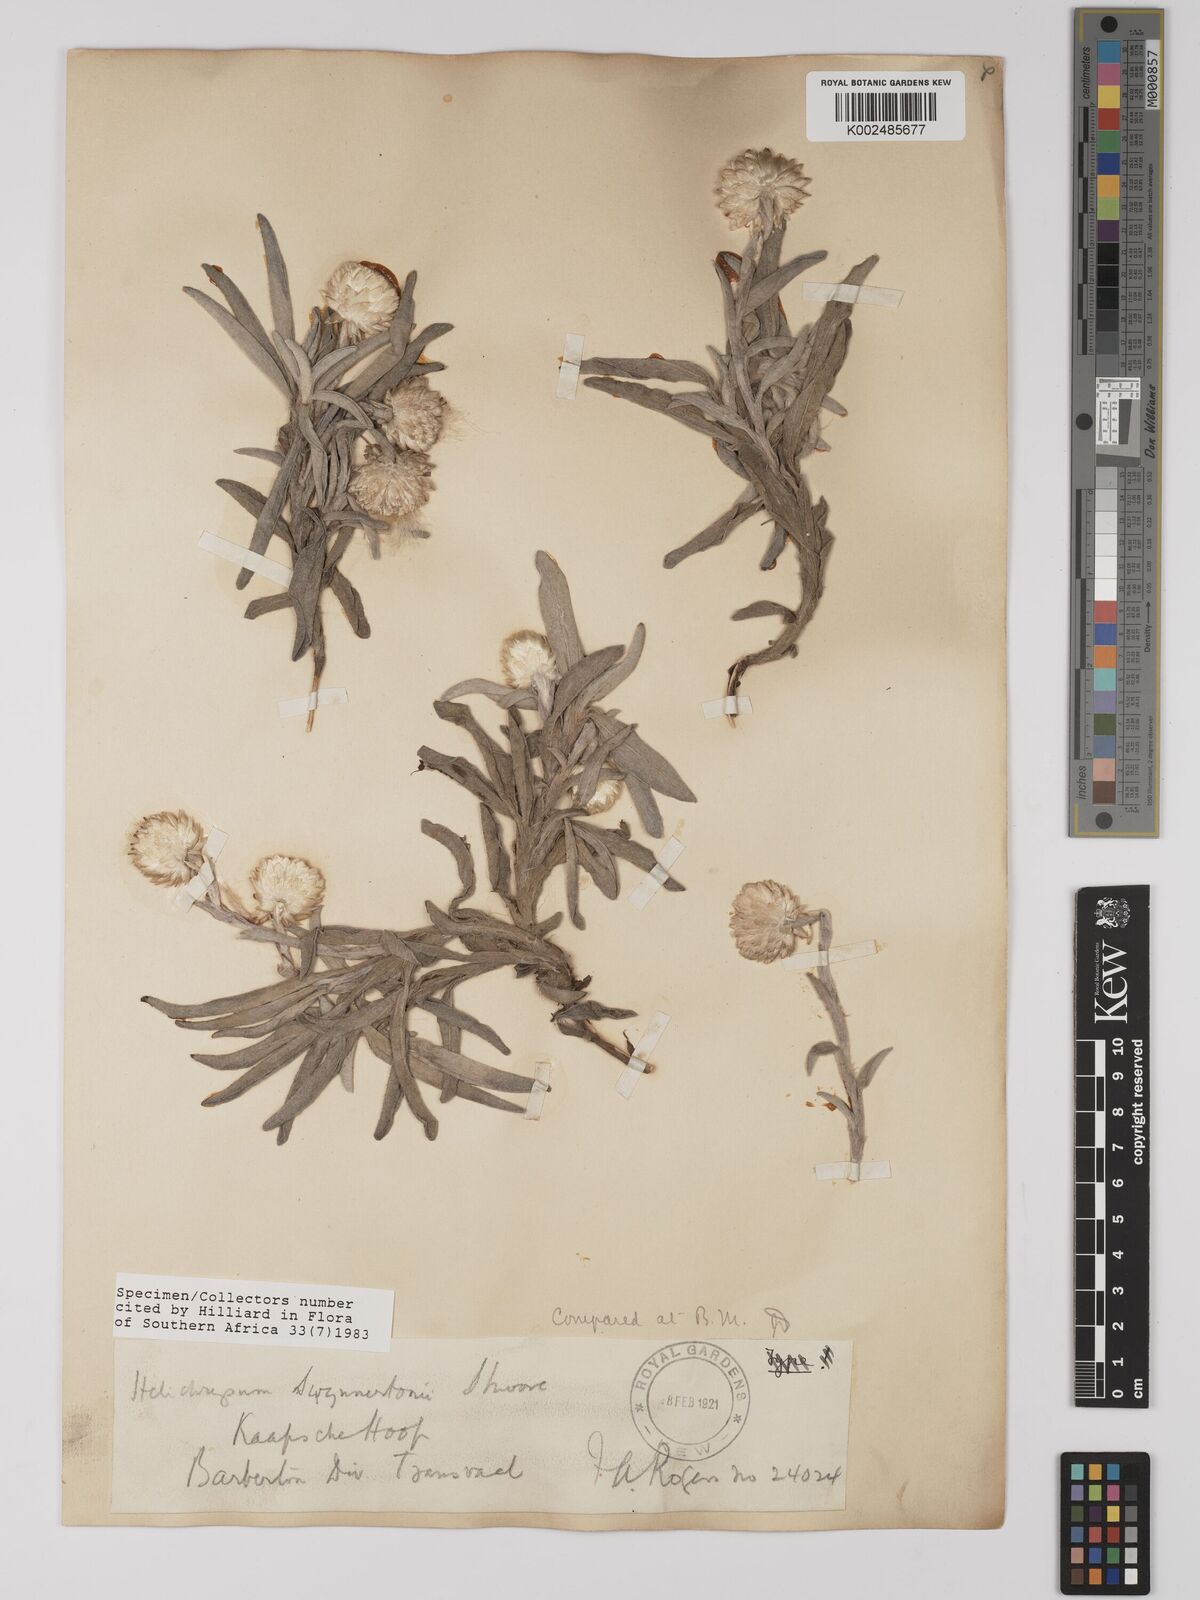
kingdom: Plantae
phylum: Tracheophyta
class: Magnoliopsida
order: Asterales
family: Asteraceae
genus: Helichrysum
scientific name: Helichrysum swynnertonii
